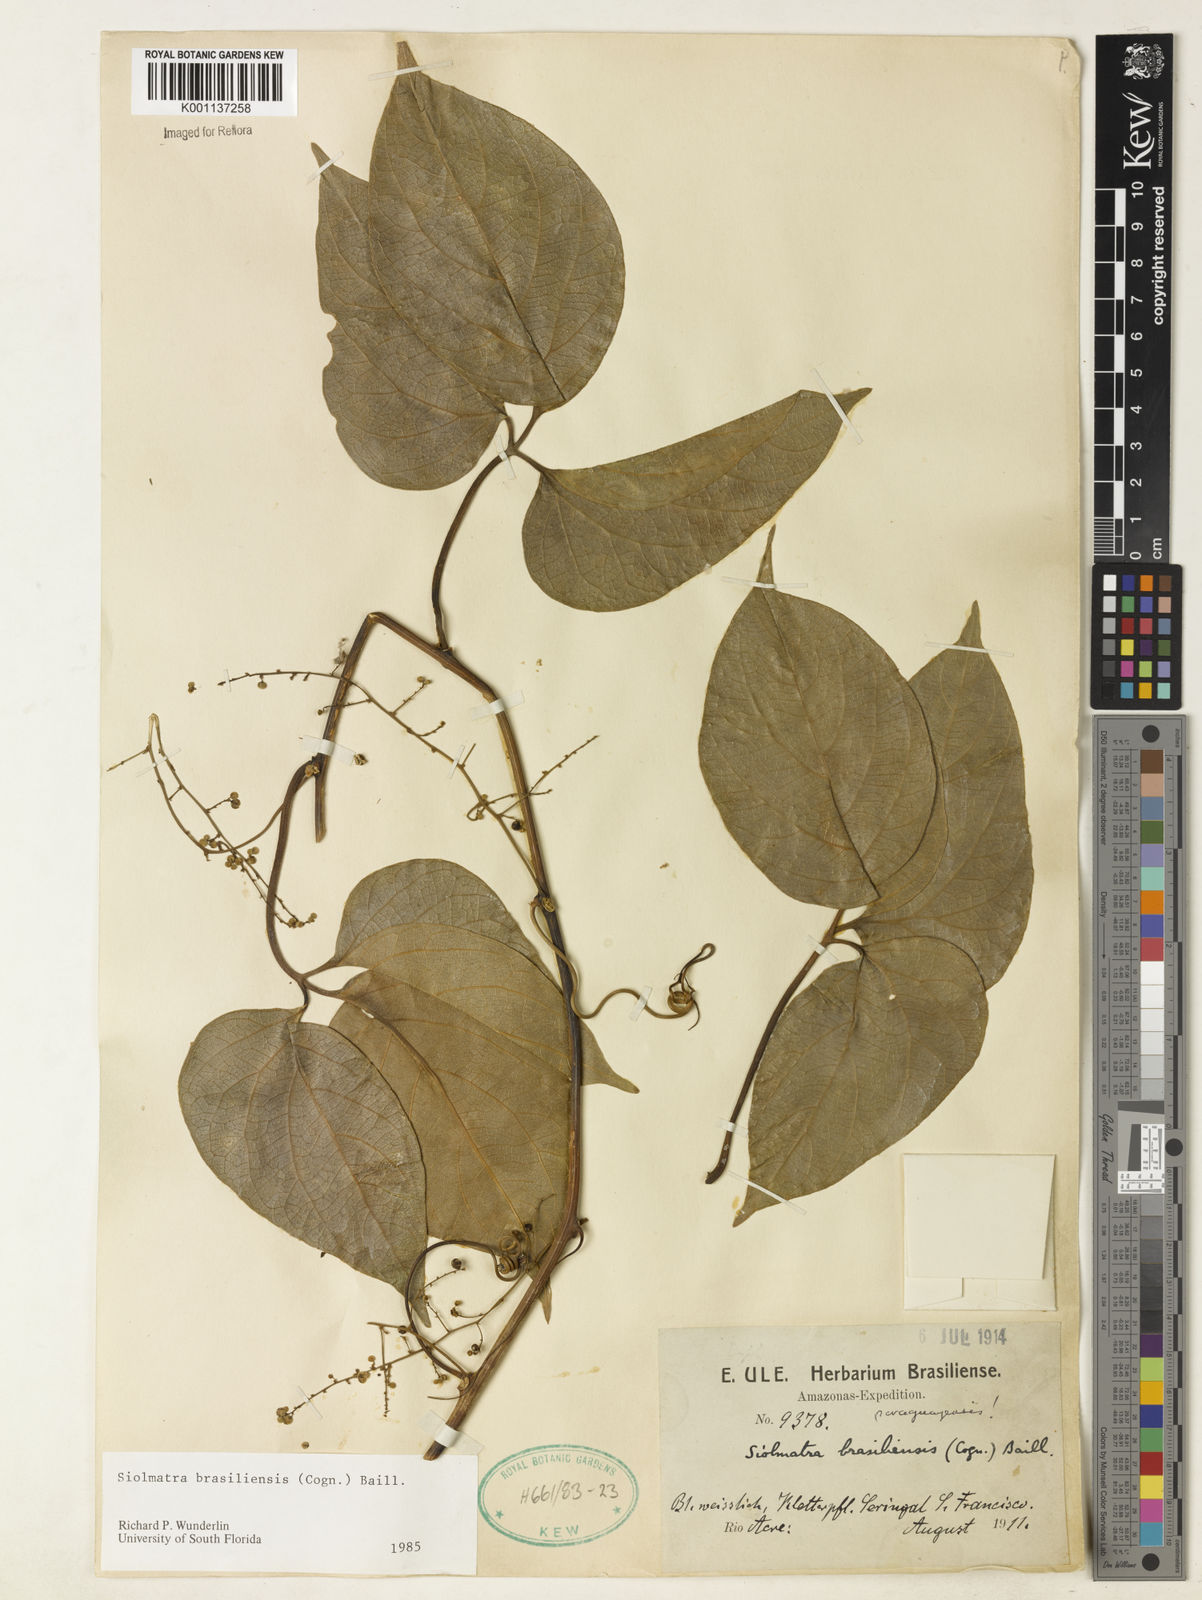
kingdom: Plantae
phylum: Tracheophyta
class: Magnoliopsida
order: Cucurbitales
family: Cucurbitaceae
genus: Siolmatra
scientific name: Siolmatra brasiliensis
